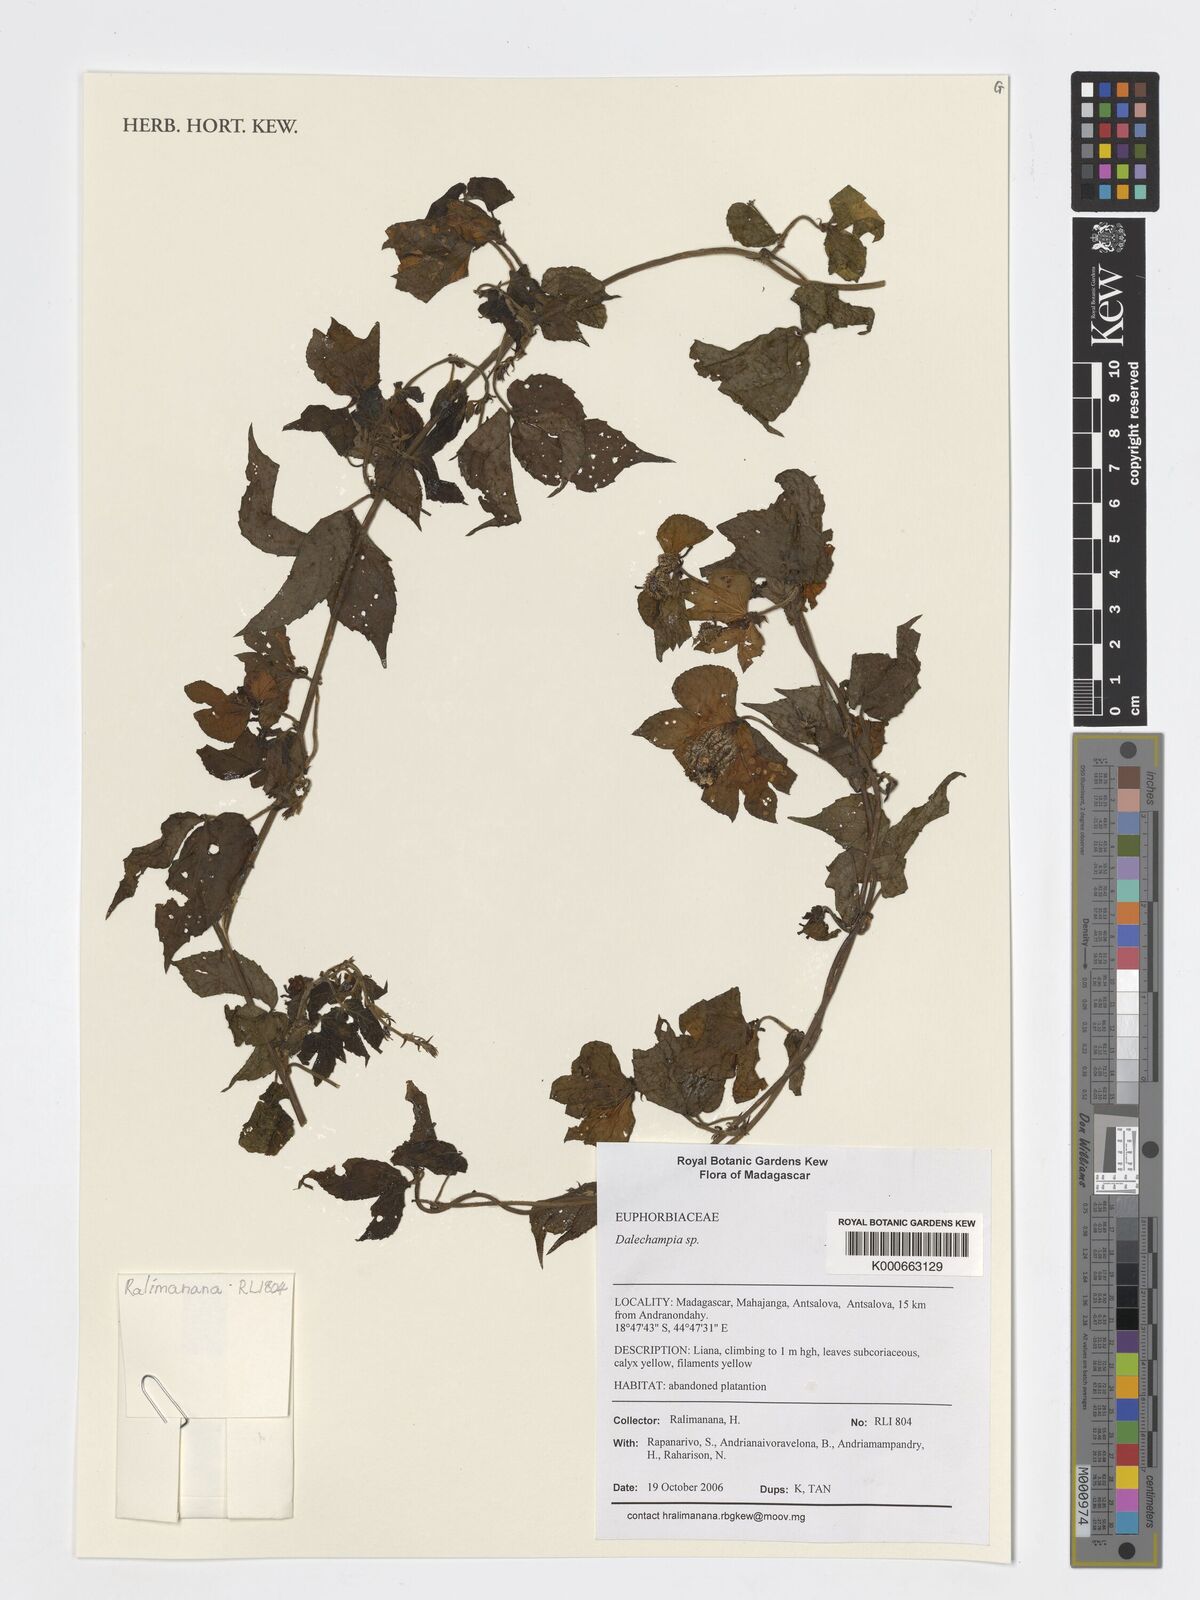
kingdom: Plantae
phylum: Tracheophyta
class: Magnoliopsida
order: Malpighiales
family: Euphorbiaceae
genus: Dalechampia
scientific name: Dalechampia
